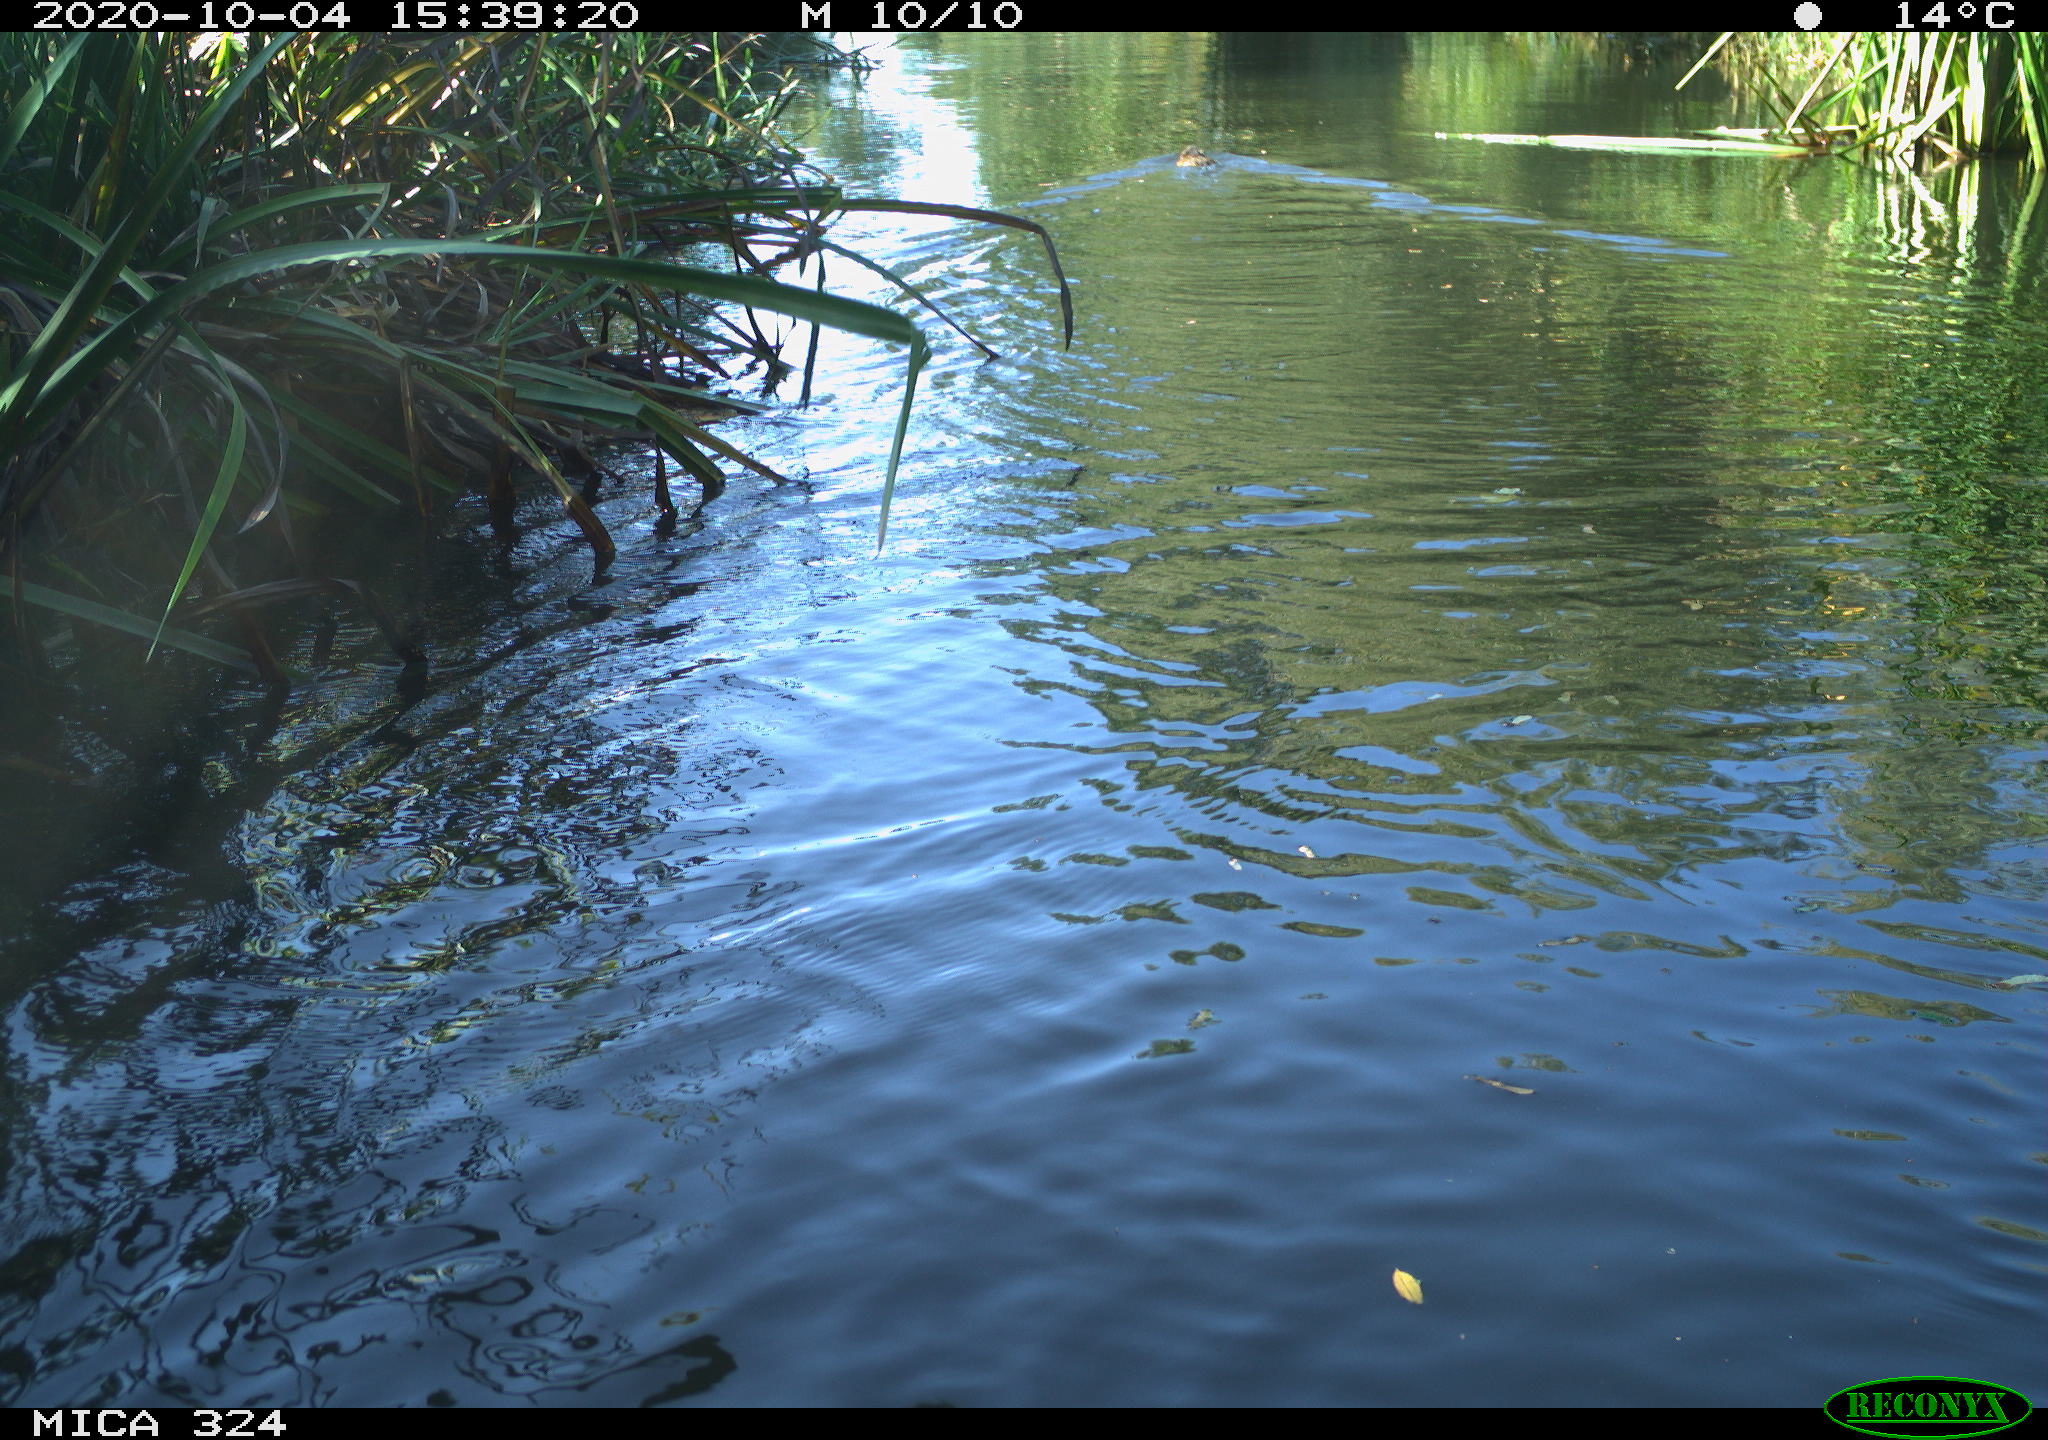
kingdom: Animalia
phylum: Chordata
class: Mammalia
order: Rodentia
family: Myocastoridae
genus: Myocastor
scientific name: Myocastor coypus
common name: Coypu
